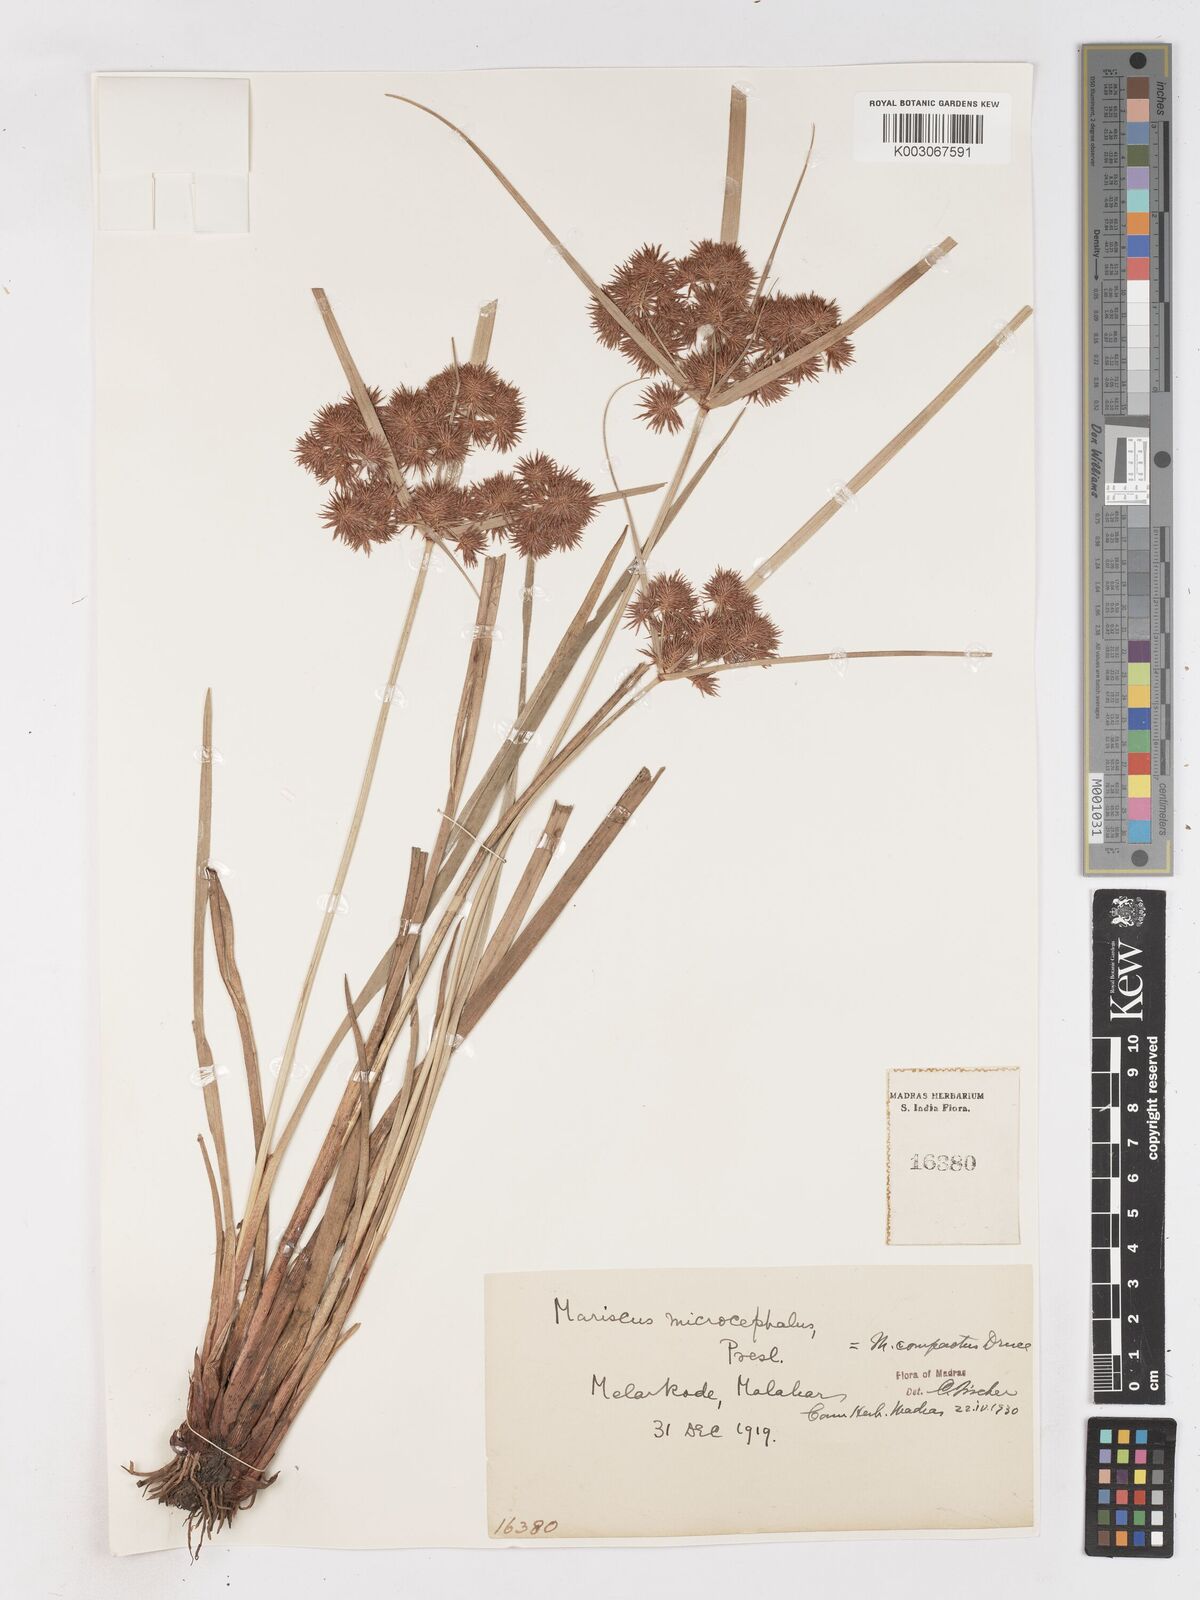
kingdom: Plantae
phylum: Tracheophyta
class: Liliopsida
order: Poales
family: Cyperaceae
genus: Cyperus
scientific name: Cyperus compactus
